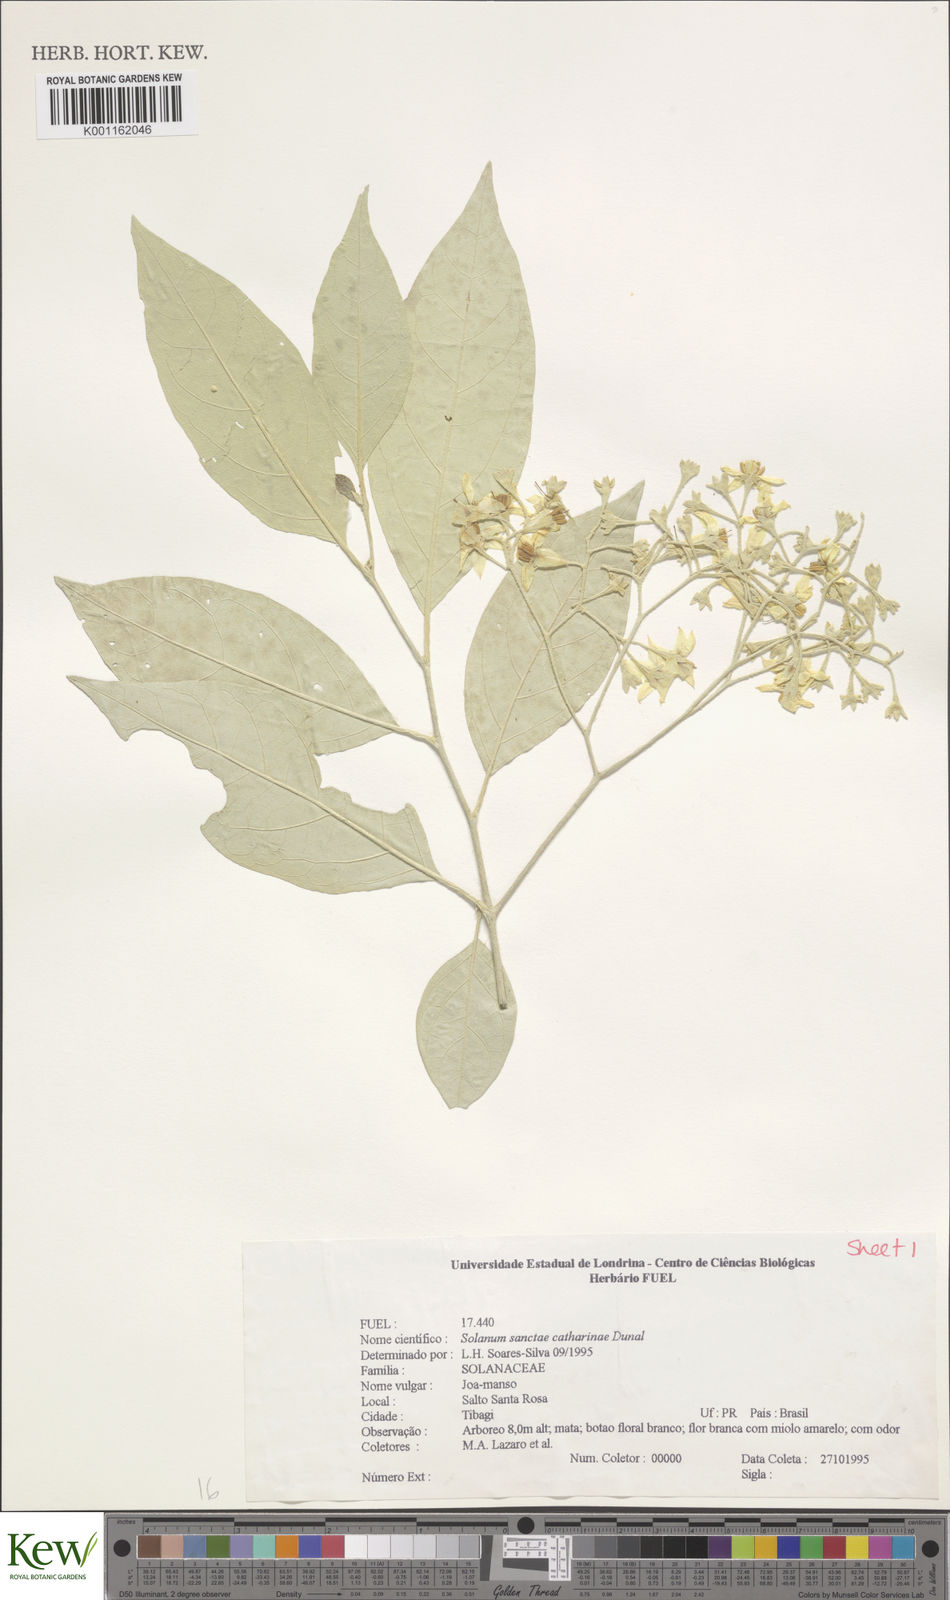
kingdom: Plantae
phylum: Tracheophyta
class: Magnoliopsida
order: Solanales
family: Solanaceae
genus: Solanum
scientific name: Solanum sanctae-catharinae
